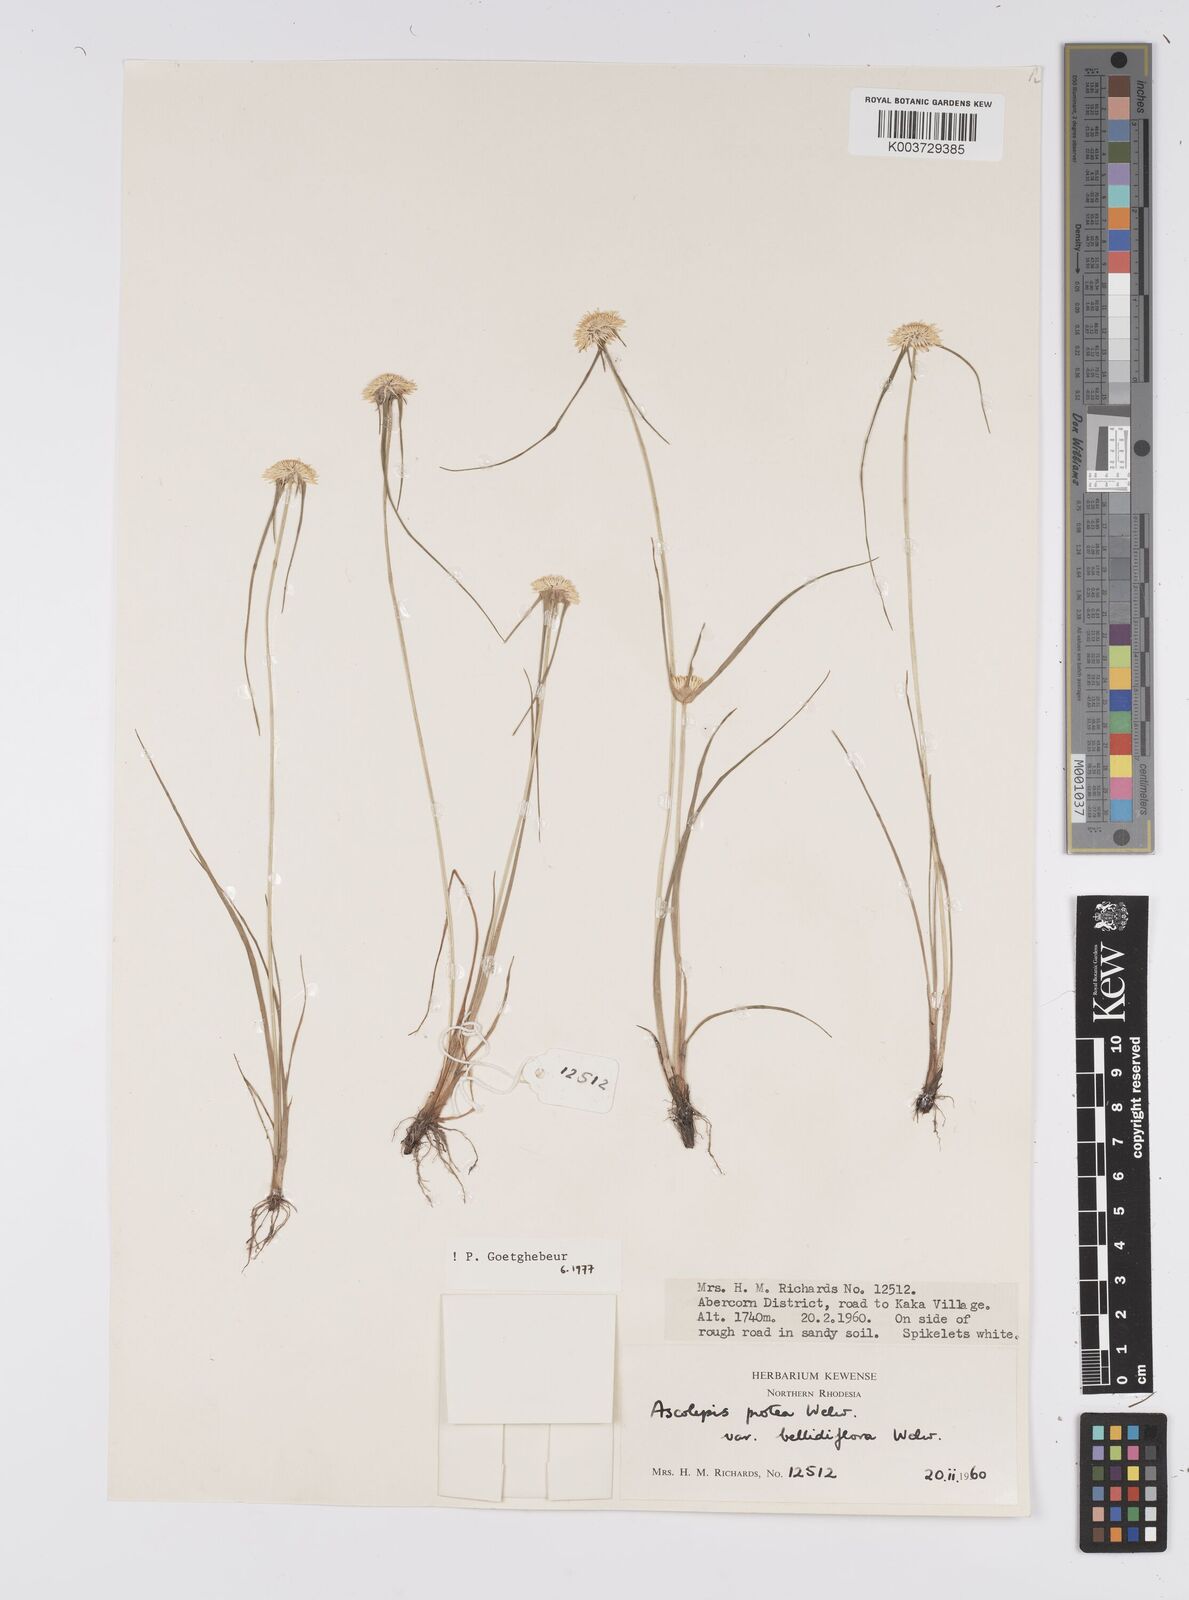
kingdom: Plantae
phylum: Tracheophyta
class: Liliopsida
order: Poales
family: Cyperaceae
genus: Cyperus
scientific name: Cyperus proteus
